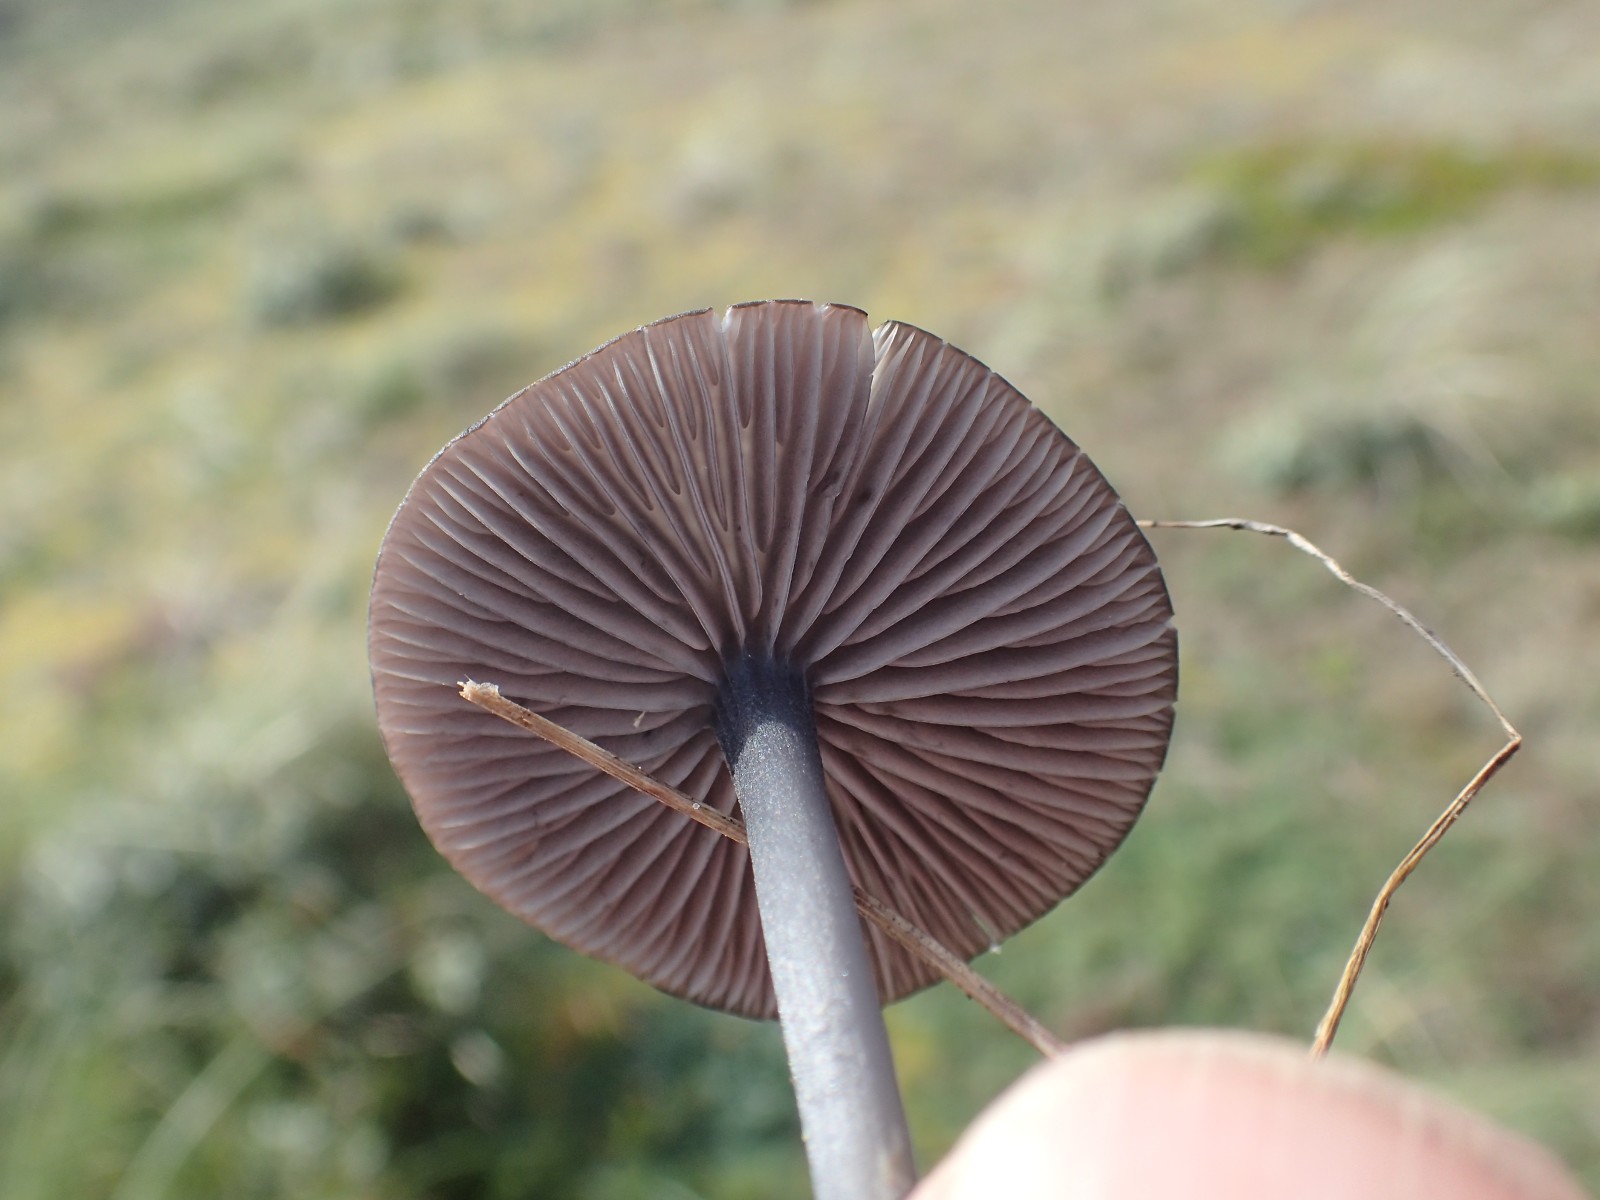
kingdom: Fungi
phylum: Basidiomycota
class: Agaricomycetes
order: Agaricales
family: Entolomataceae
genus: Entoloma
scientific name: Entoloma
